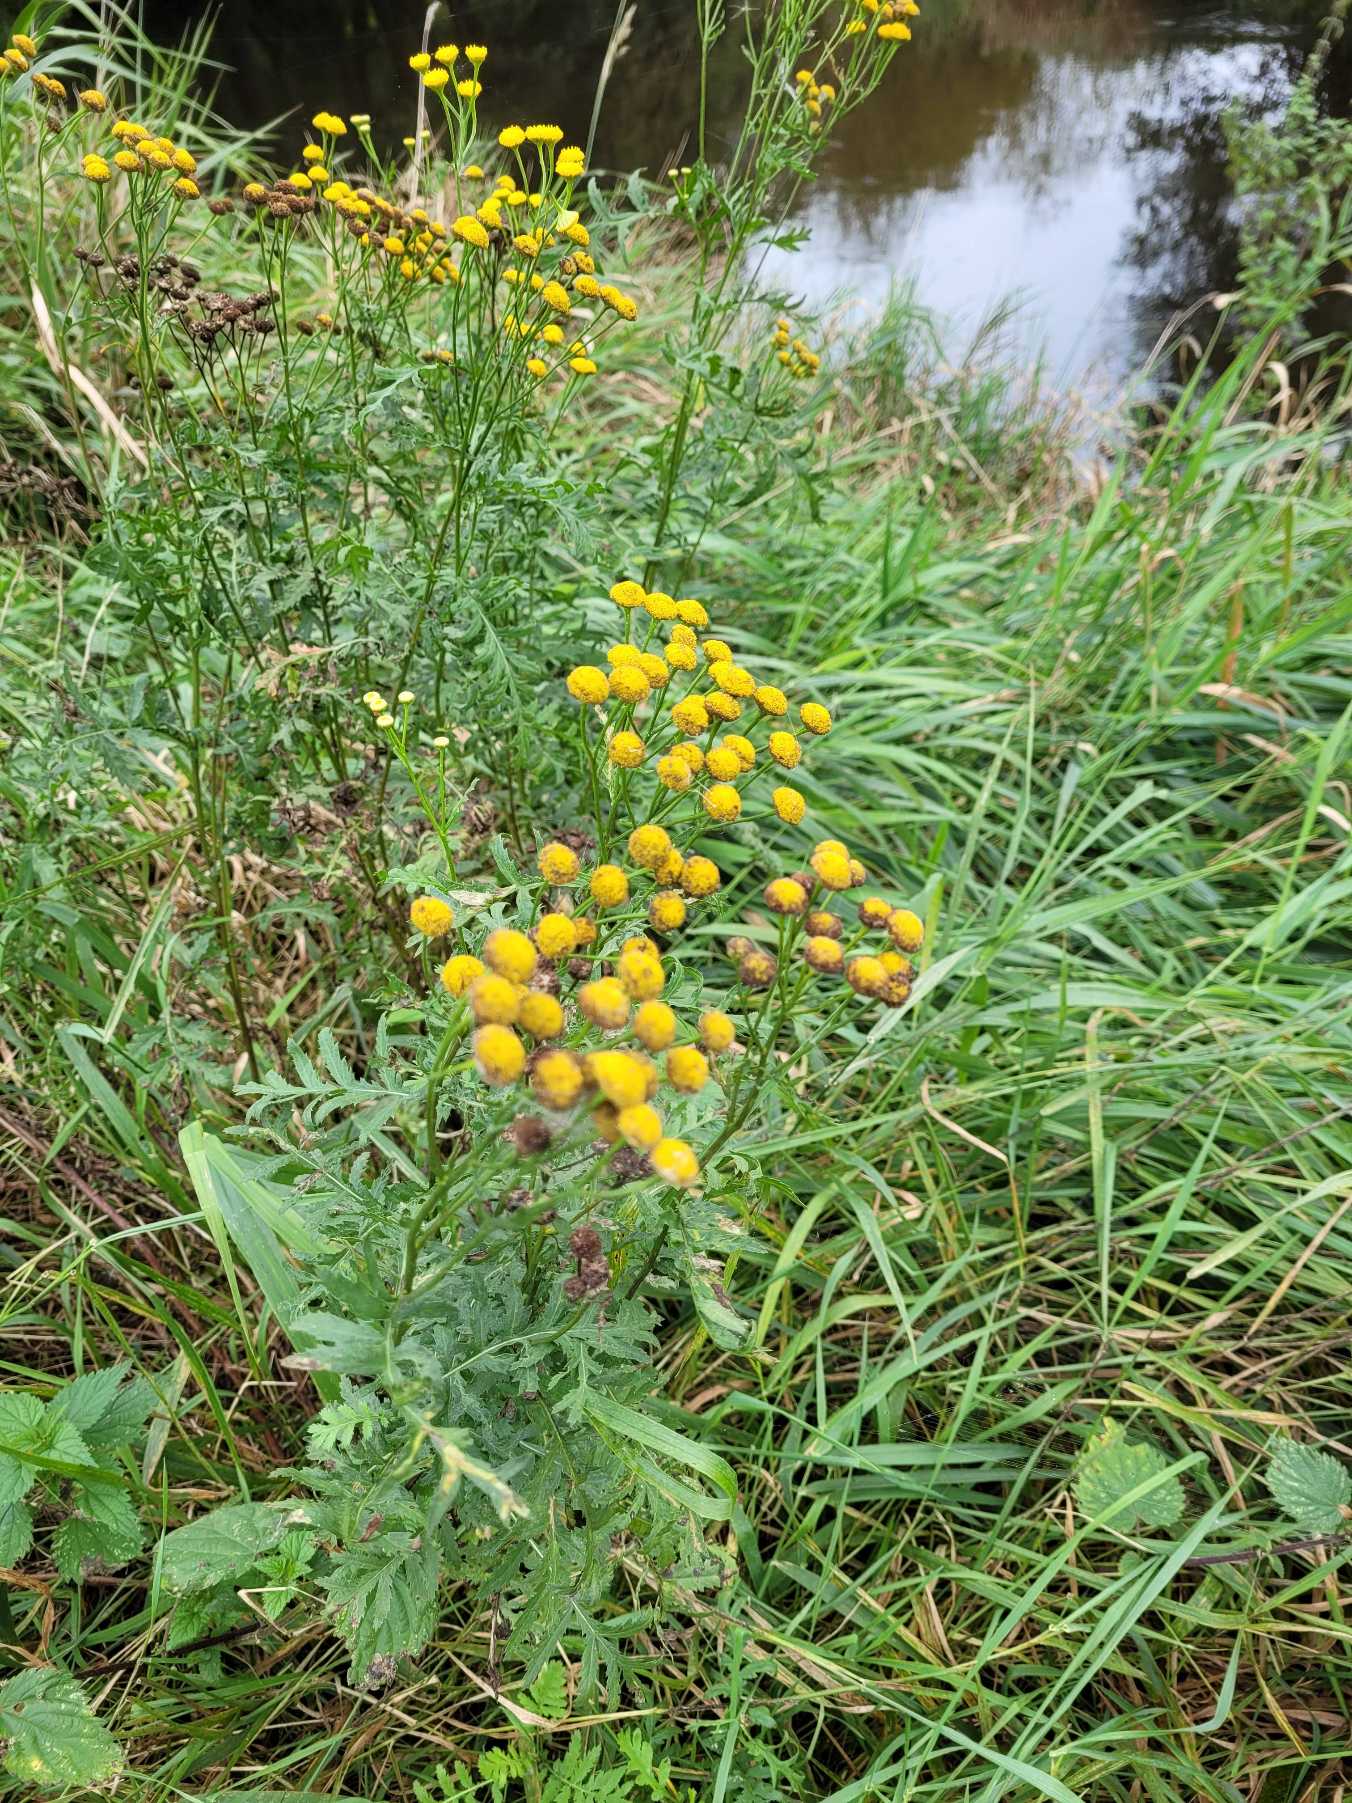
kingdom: Plantae
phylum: Tracheophyta
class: Magnoliopsida
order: Asterales
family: Asteraceae
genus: Tanacetum
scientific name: Tanacetum vulgare
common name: Rejnfan
